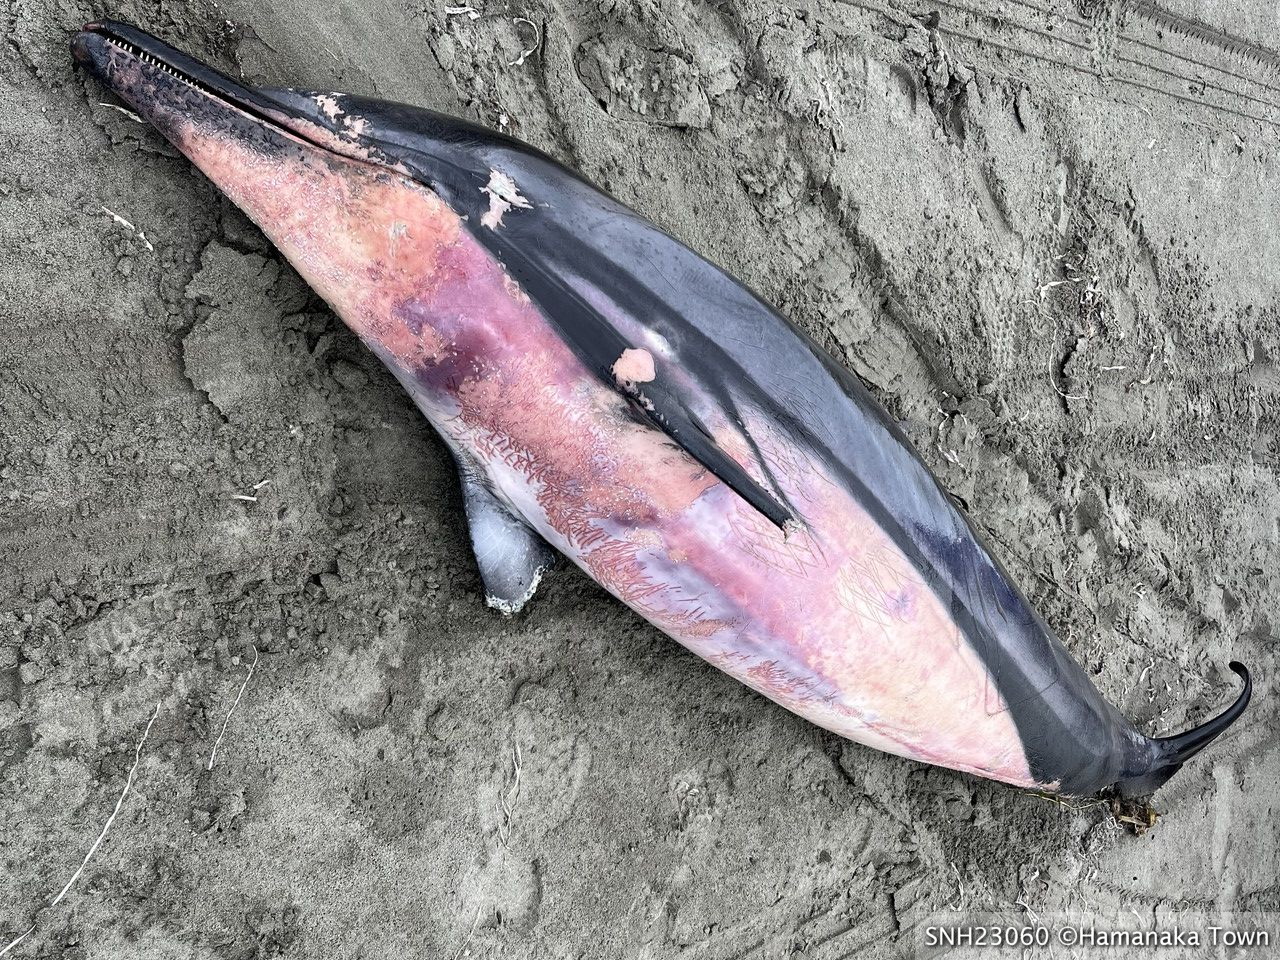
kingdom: Animalia
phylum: Chordata
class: Mammalia
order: Cetacea
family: Delphinidae
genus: Stenella
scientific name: Stenella coeruleoalba
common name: Striped dolphin
